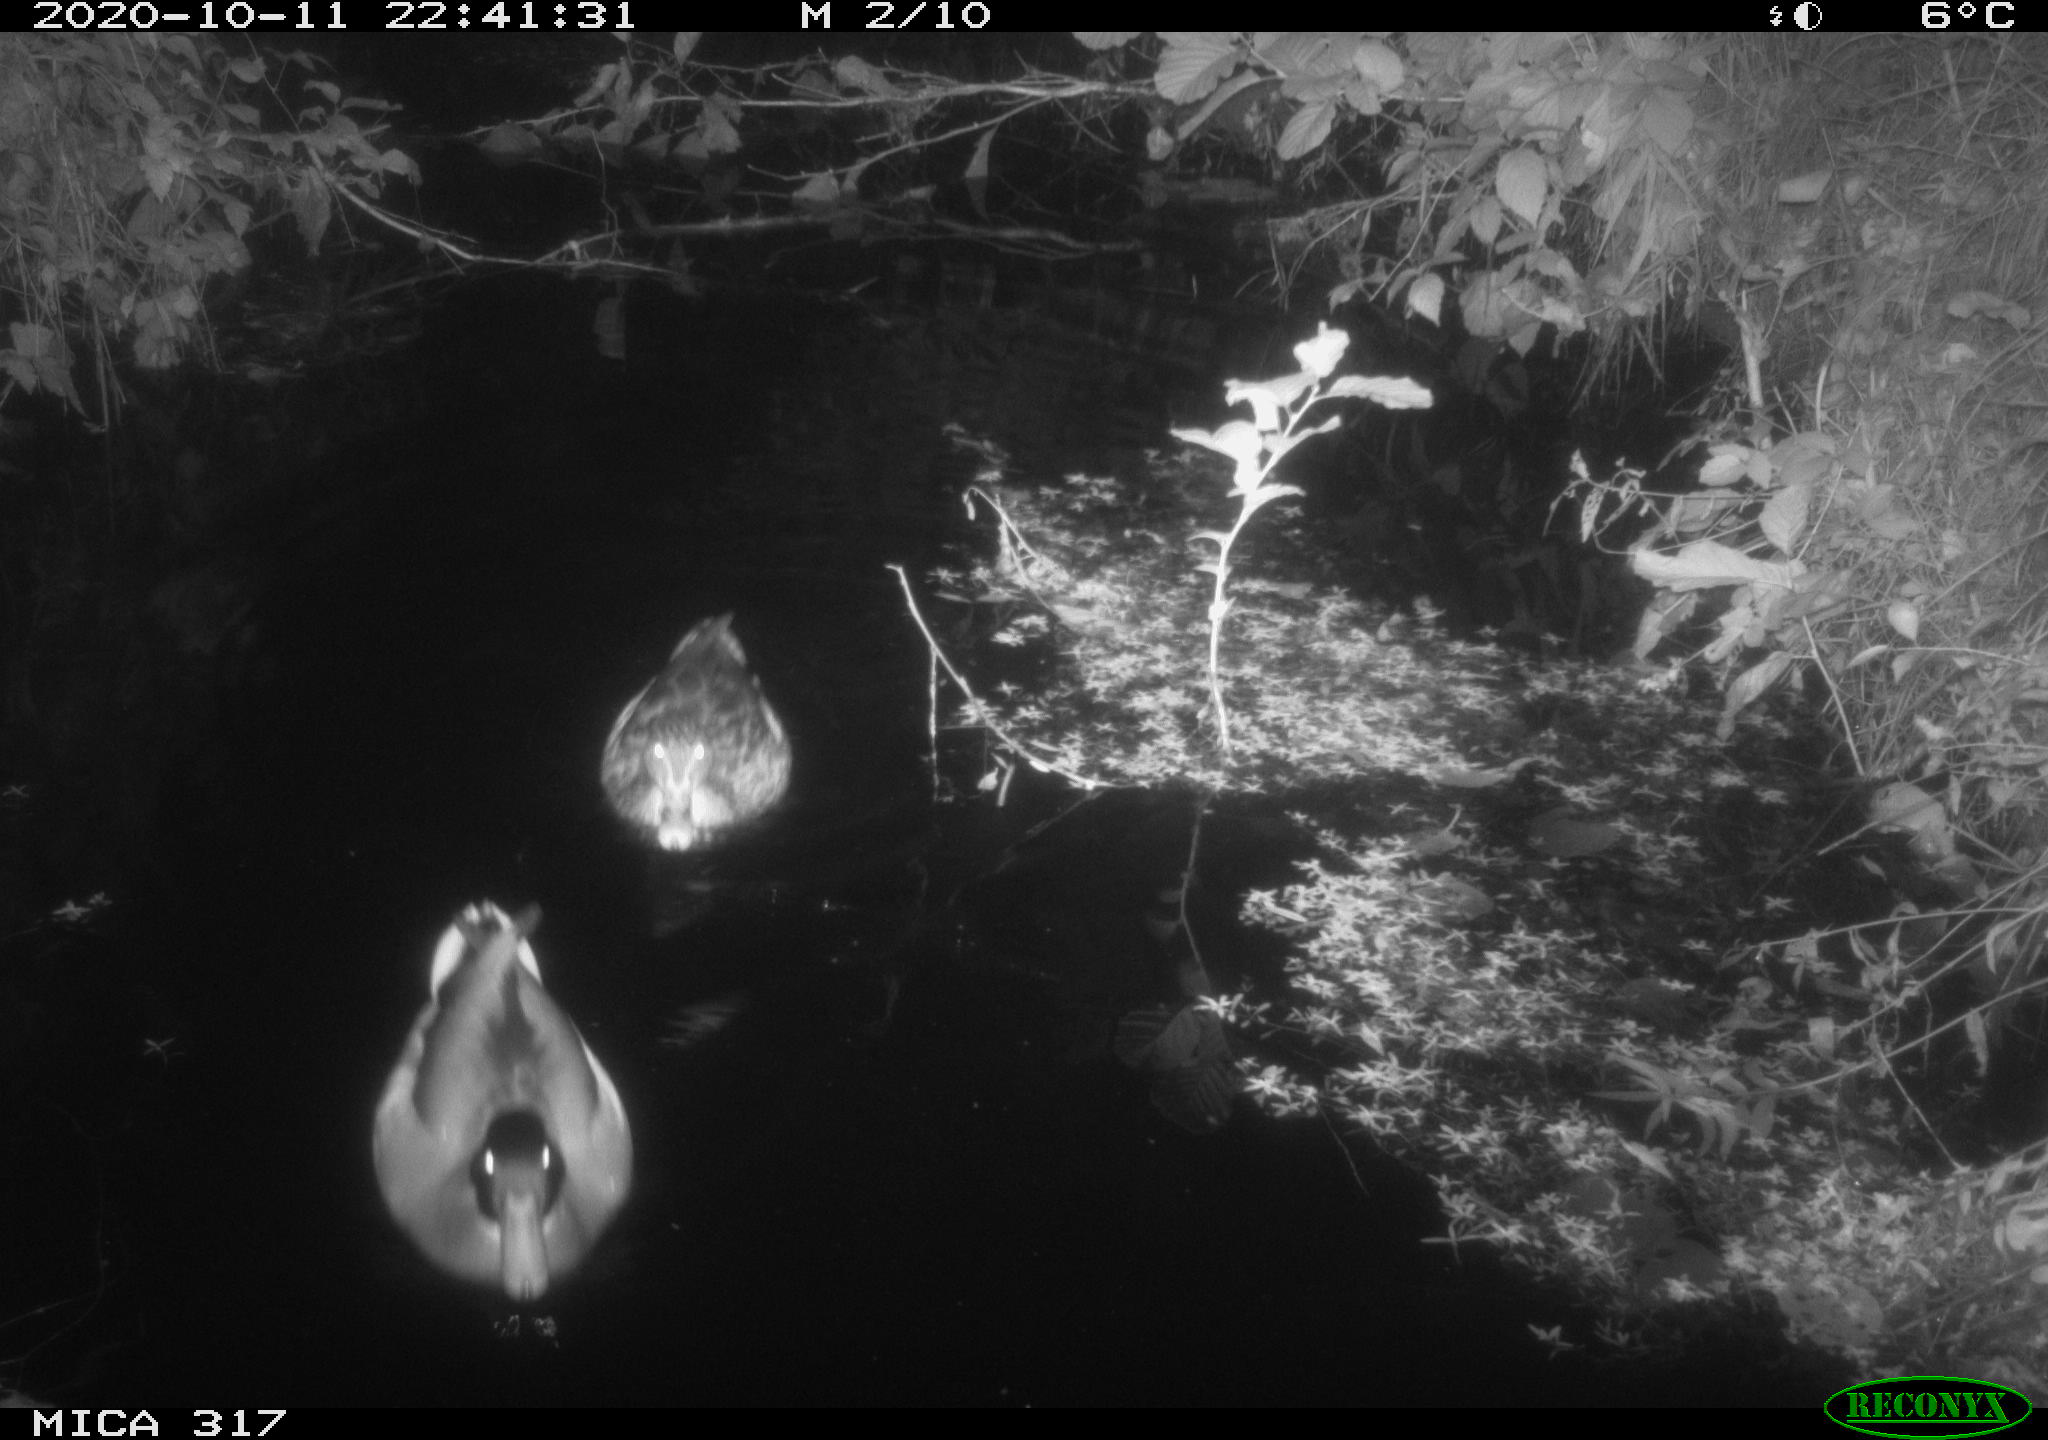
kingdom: Animalia
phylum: Chordata
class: Aves
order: Anseriformes
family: Anatidae
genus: Anas
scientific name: Anas platyrhynchos
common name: Mallard
